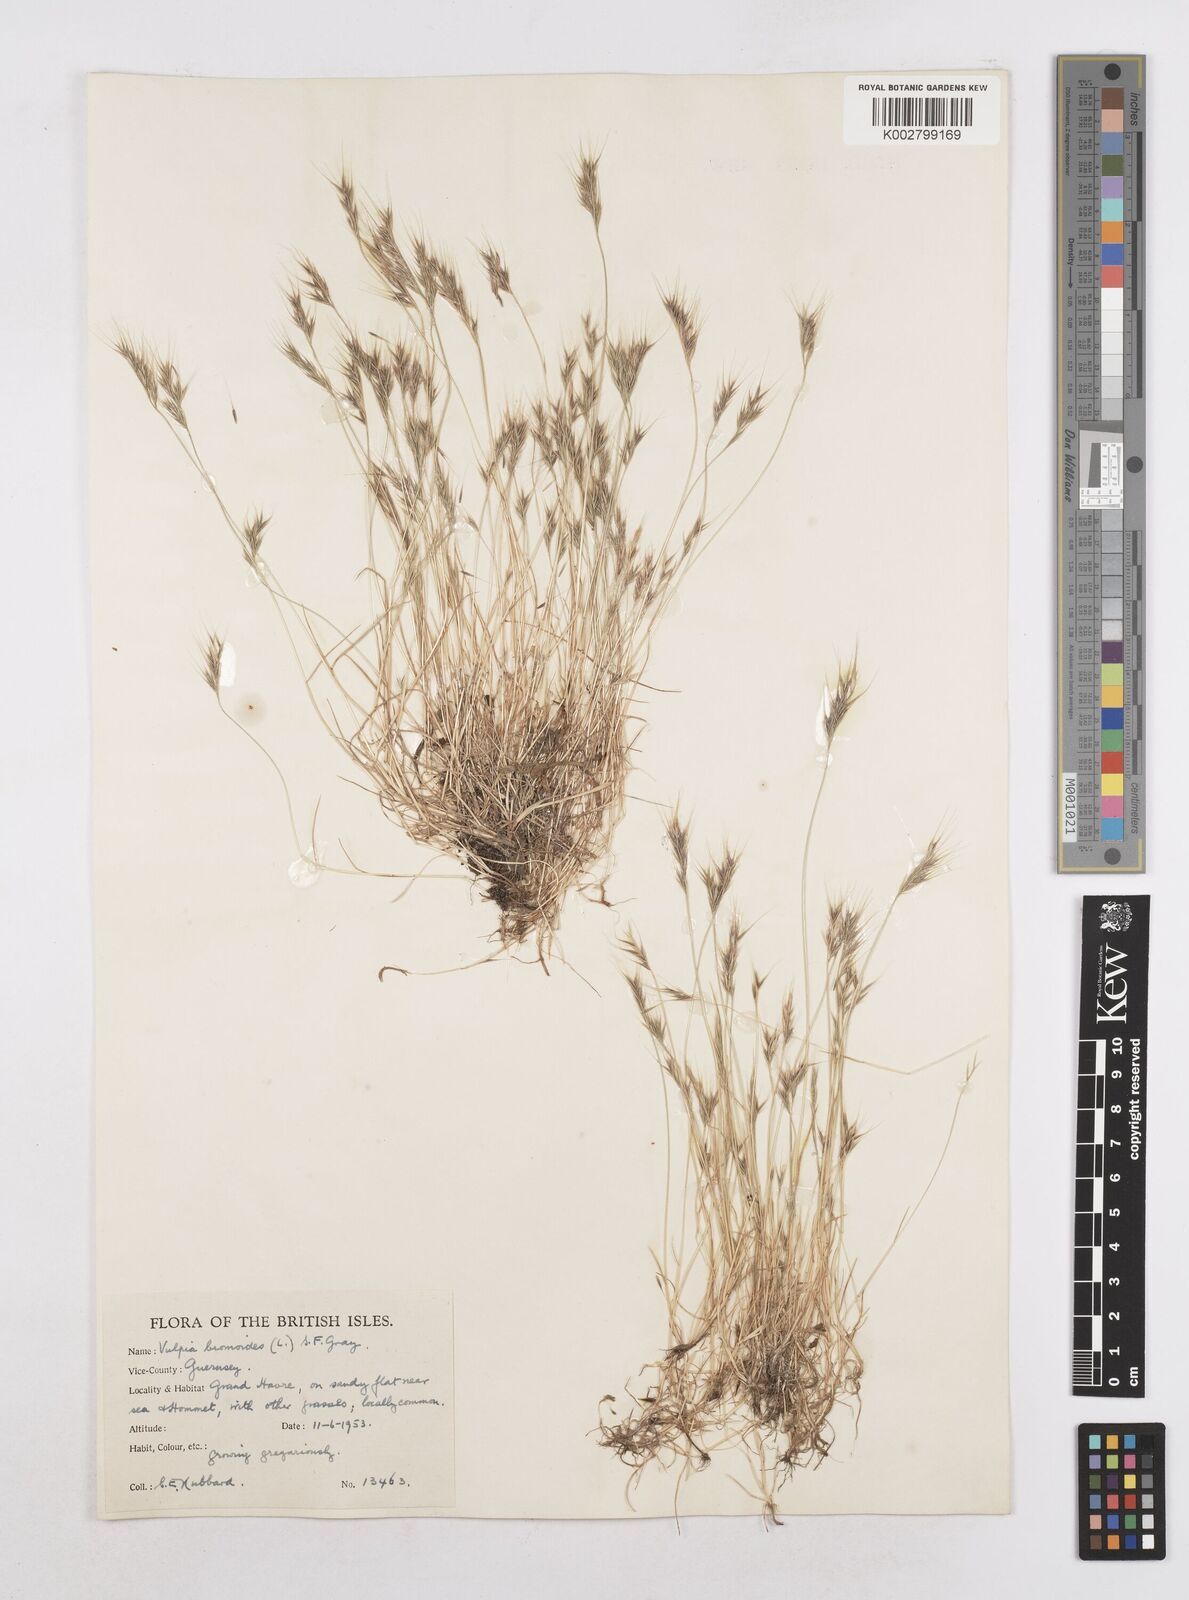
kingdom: Plantae
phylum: Tracheophyta
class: Liliopsida
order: Poales
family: Poaceae
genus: Festuca
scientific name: Festuca bromoides
